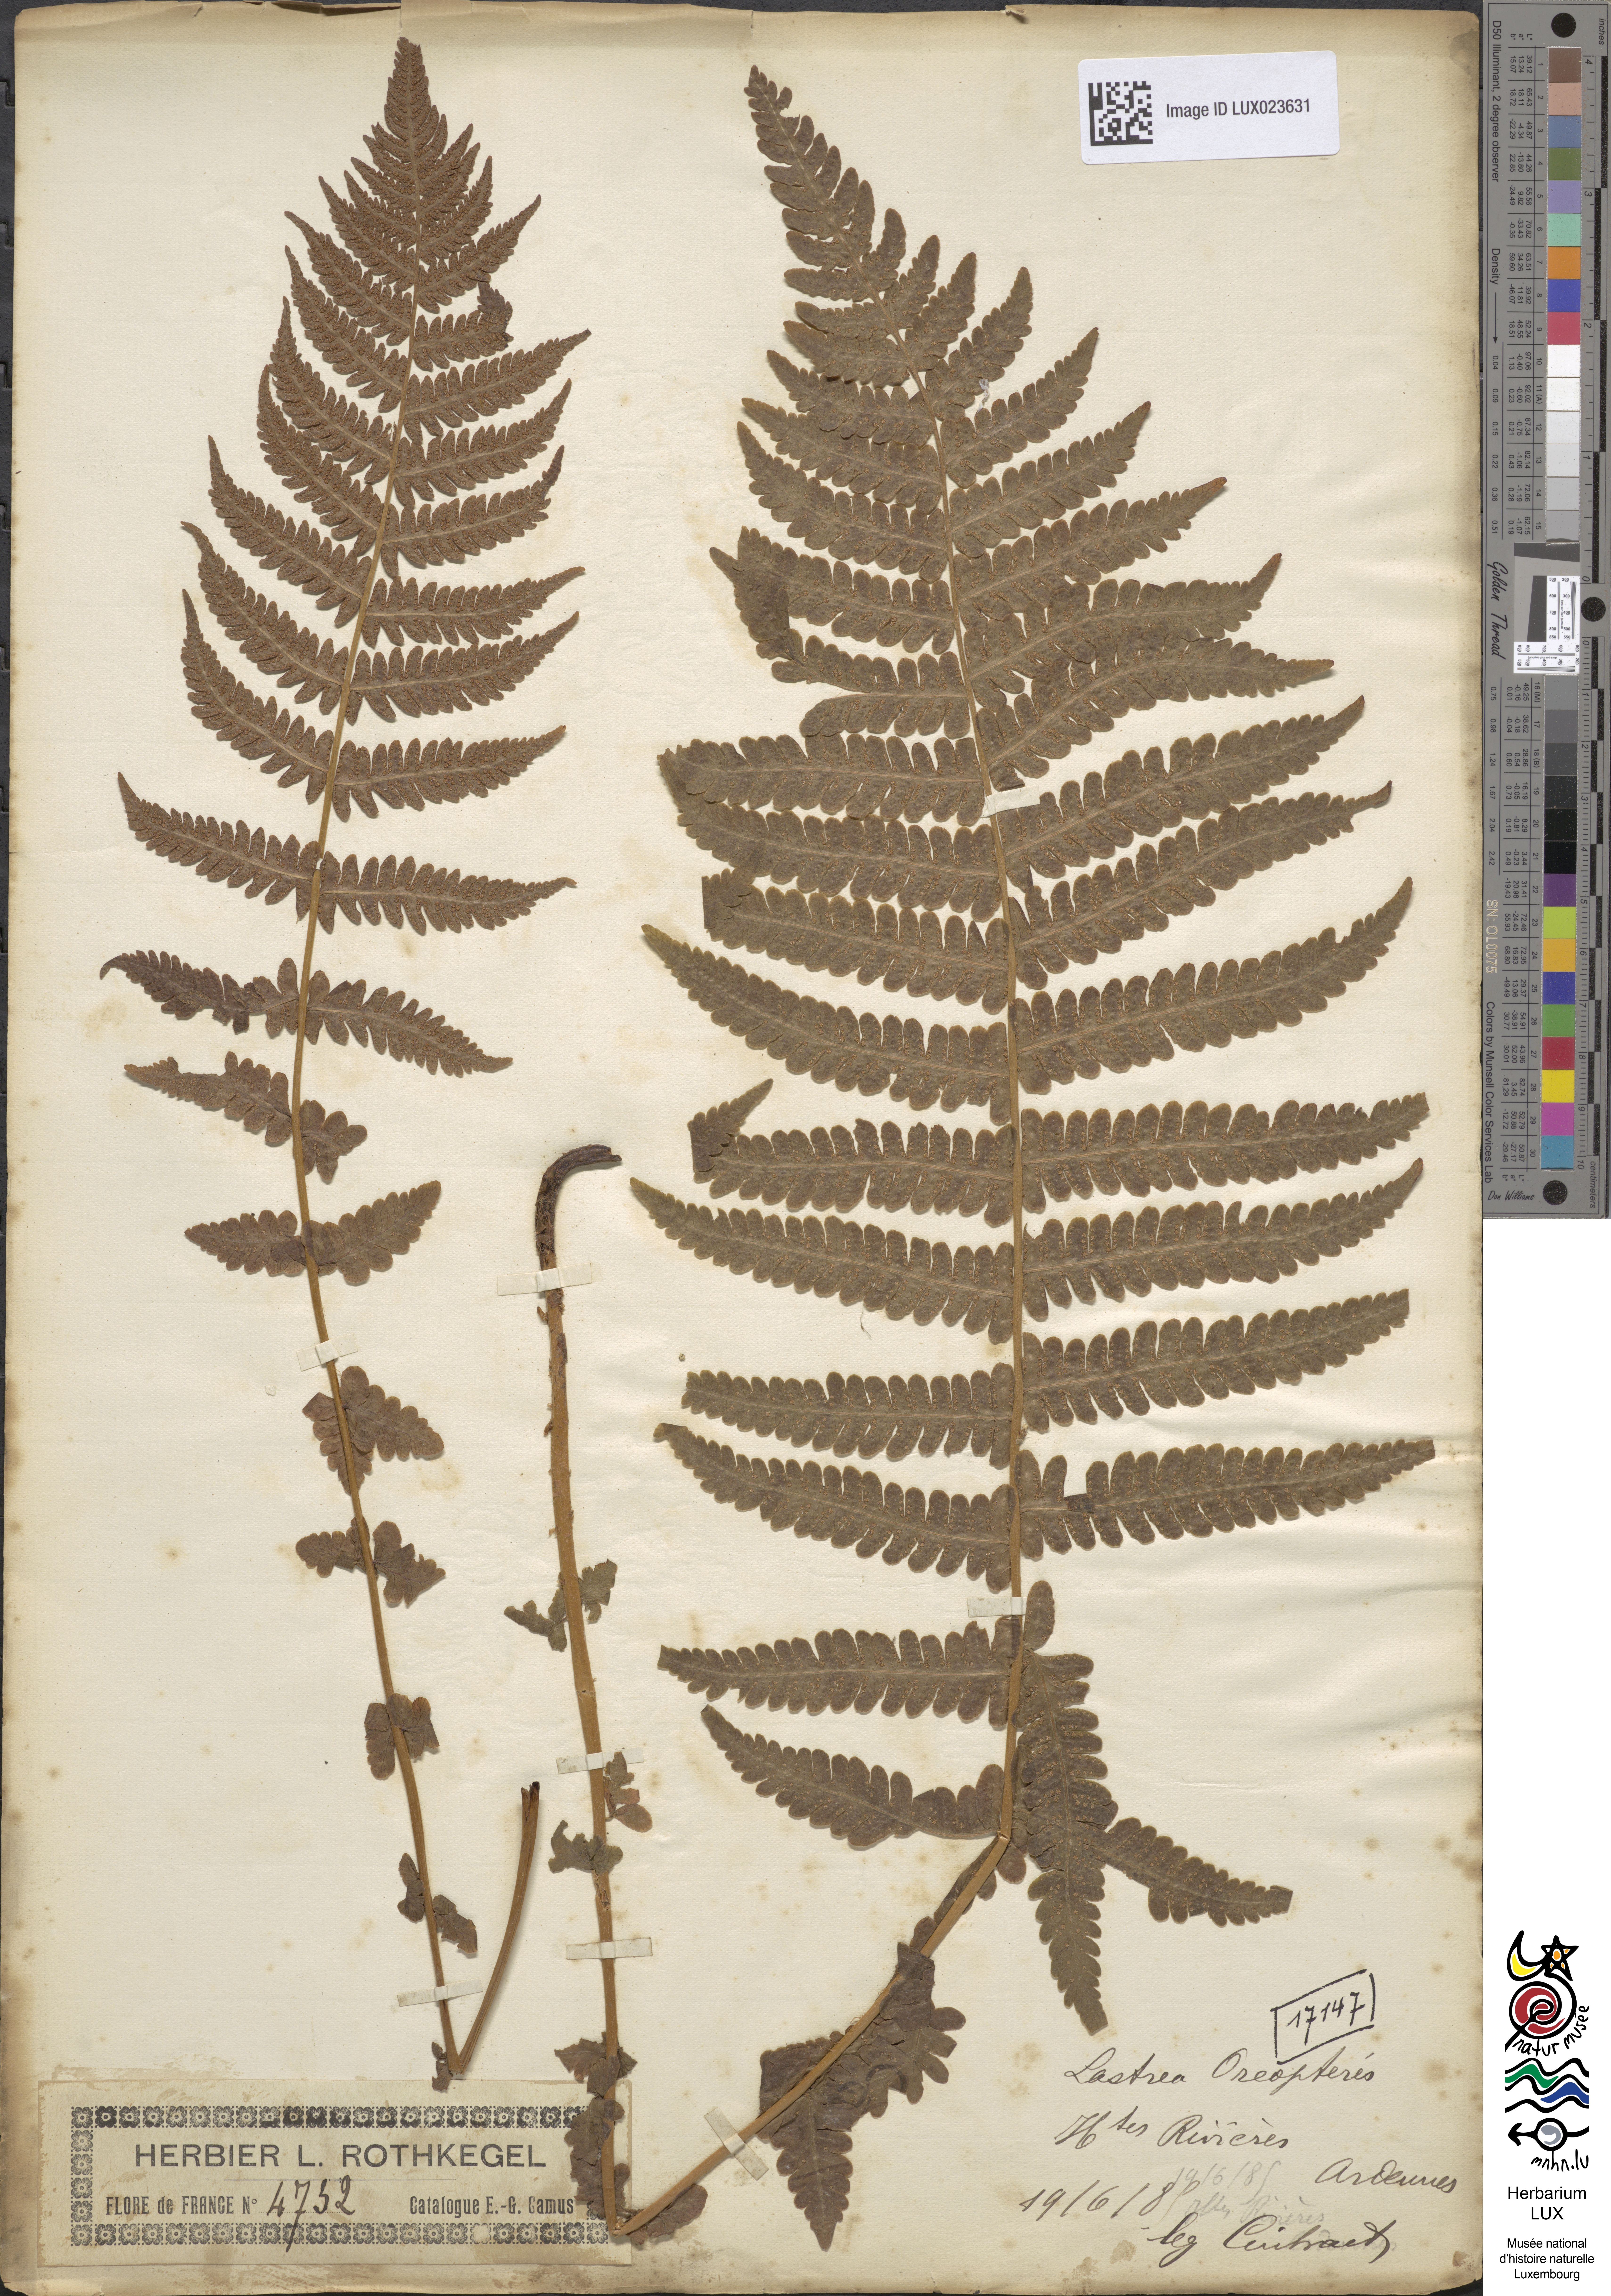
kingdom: Plantae
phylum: Tracheophyta
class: Polypodiopsida
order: Polypodiales
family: Thelypteridaceae
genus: Oreopteris
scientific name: Oreopteris limbosperma
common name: Lemon-scented fern
